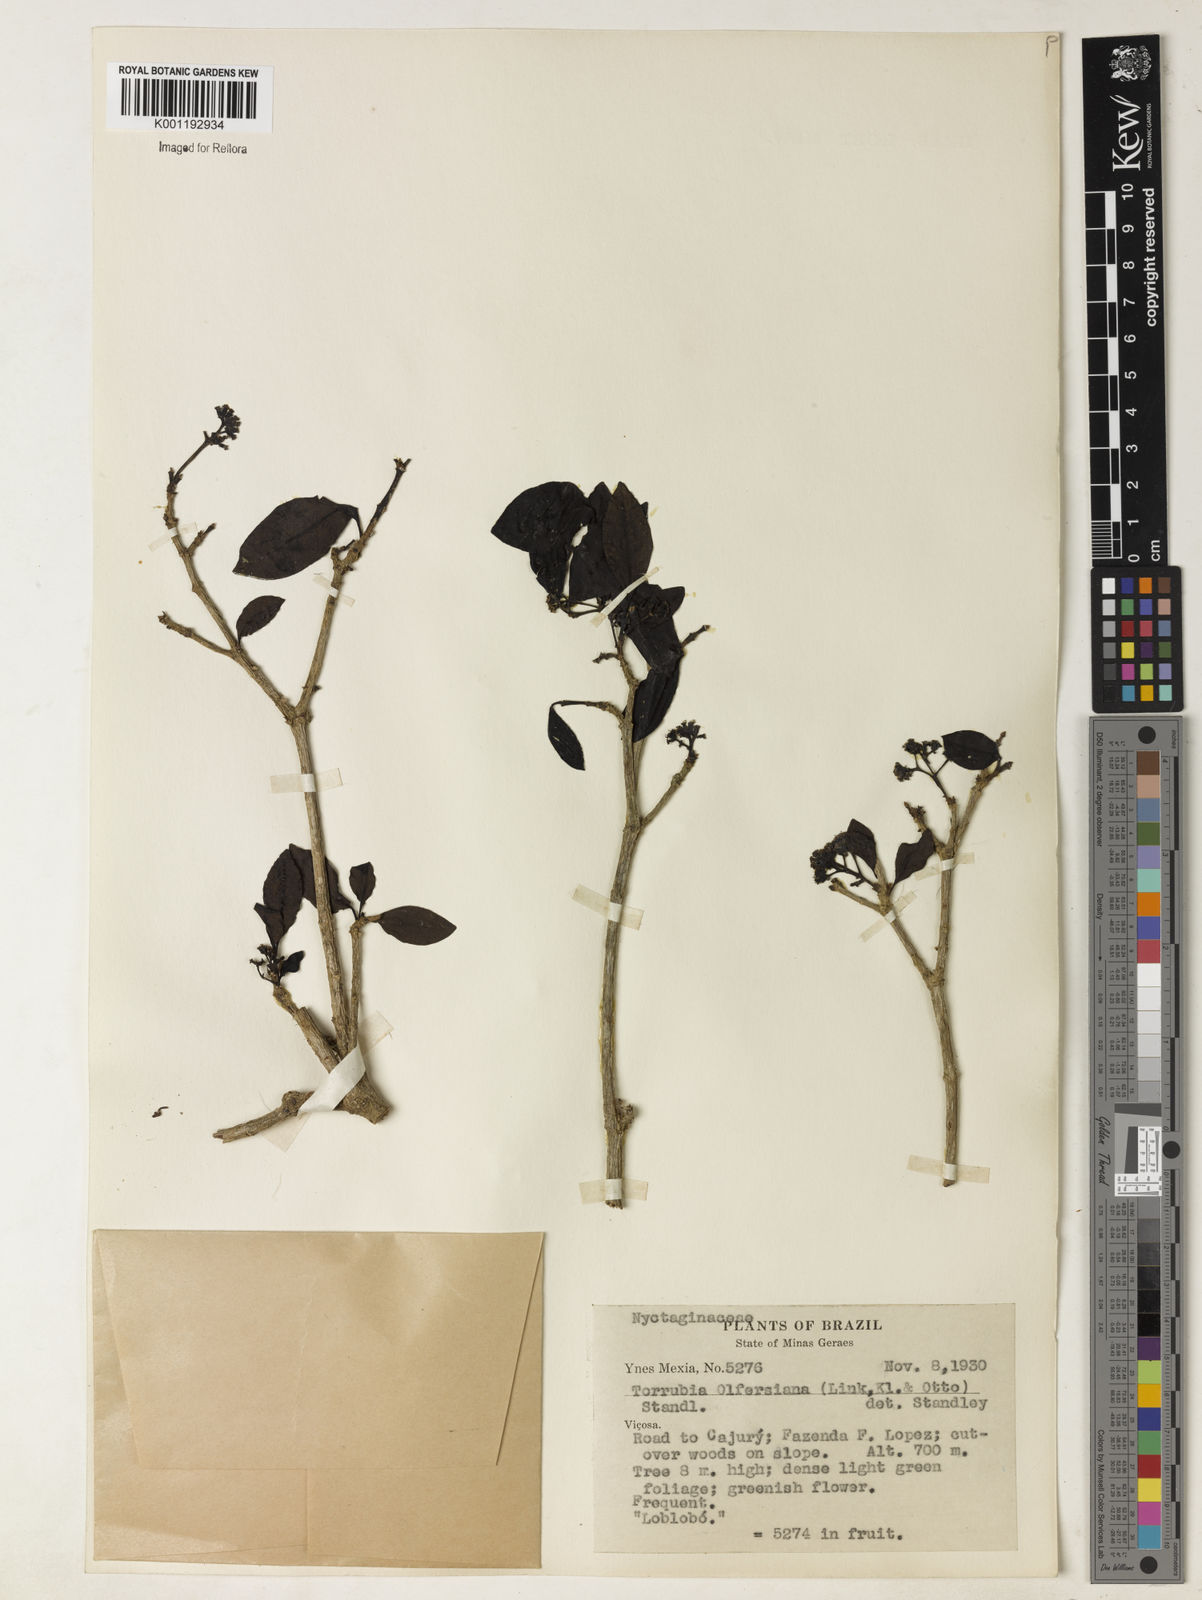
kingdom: Plantae
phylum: Tracheophyta
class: Magnoliopsida
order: Caryophyllales
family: Nyctaginaceae
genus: Guapira
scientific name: Guapira
